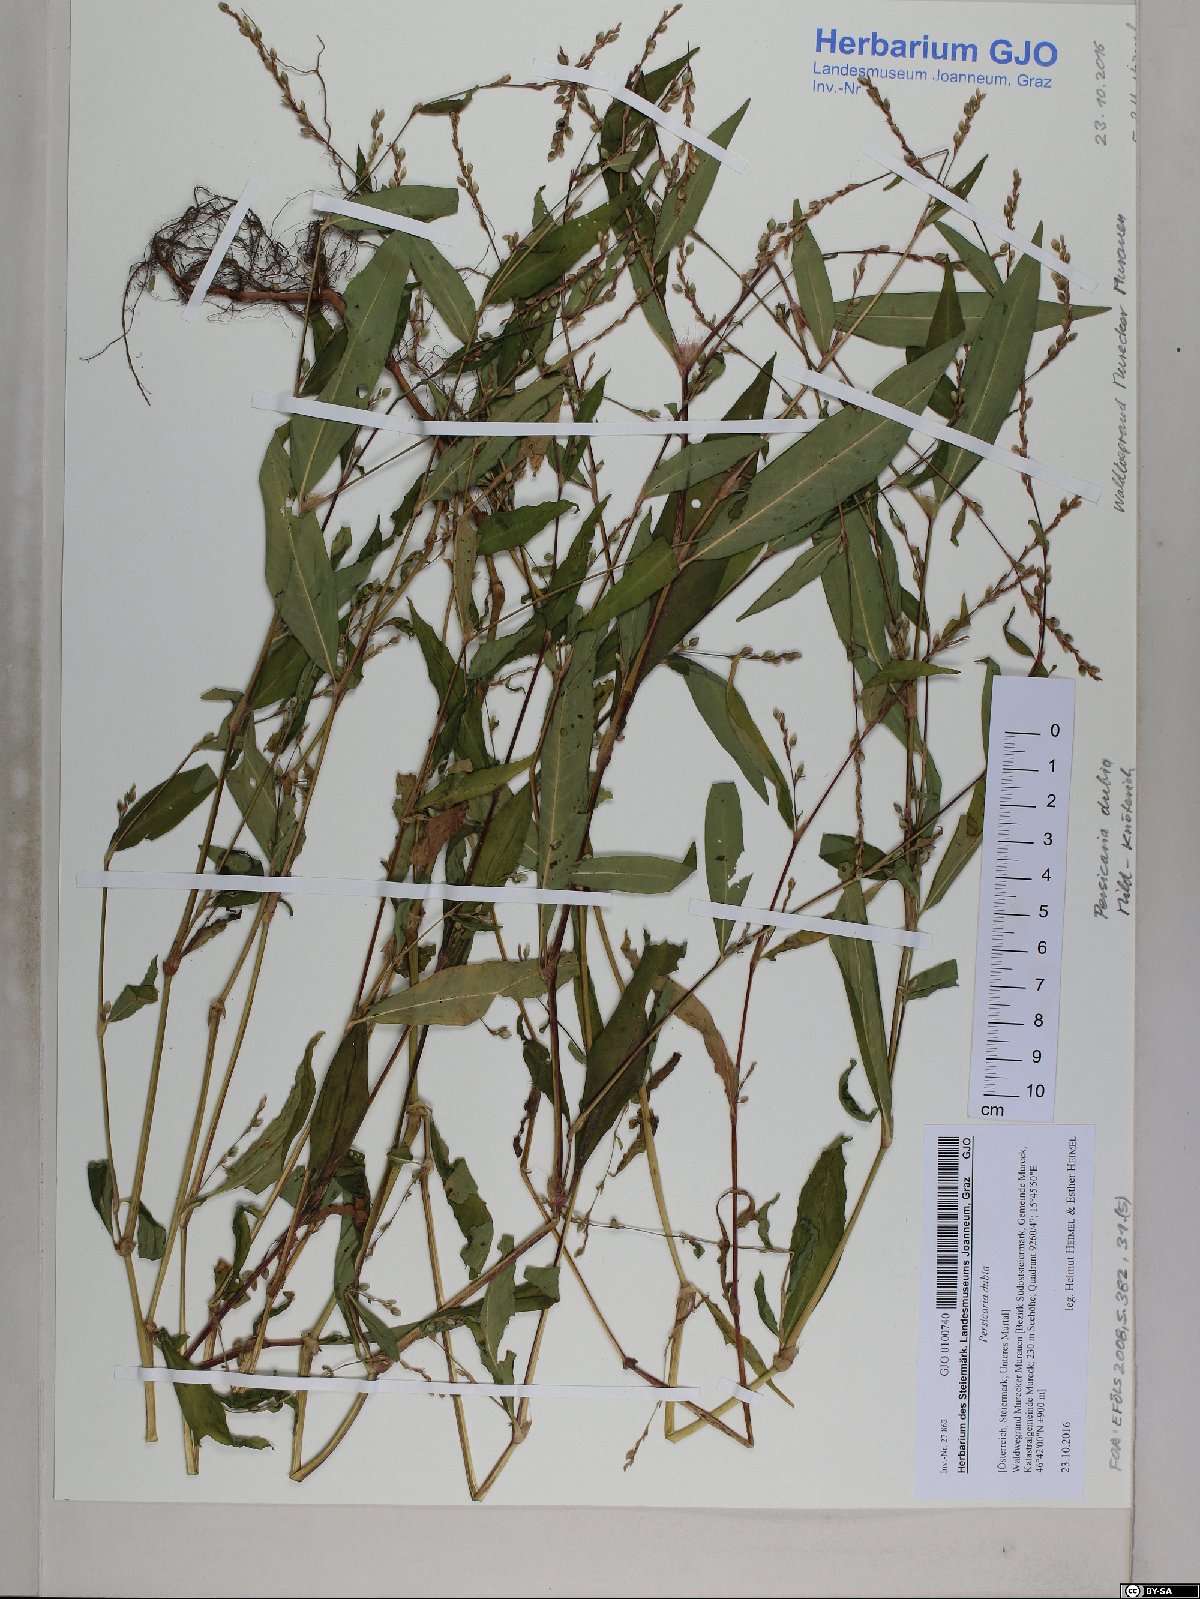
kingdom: Plantae
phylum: Tracheophyta
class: Magnoliopsida
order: Caryophyllales
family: Polygonaceae
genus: Persicaria
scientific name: Persicaria mitis
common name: Tasteless water-pepper
